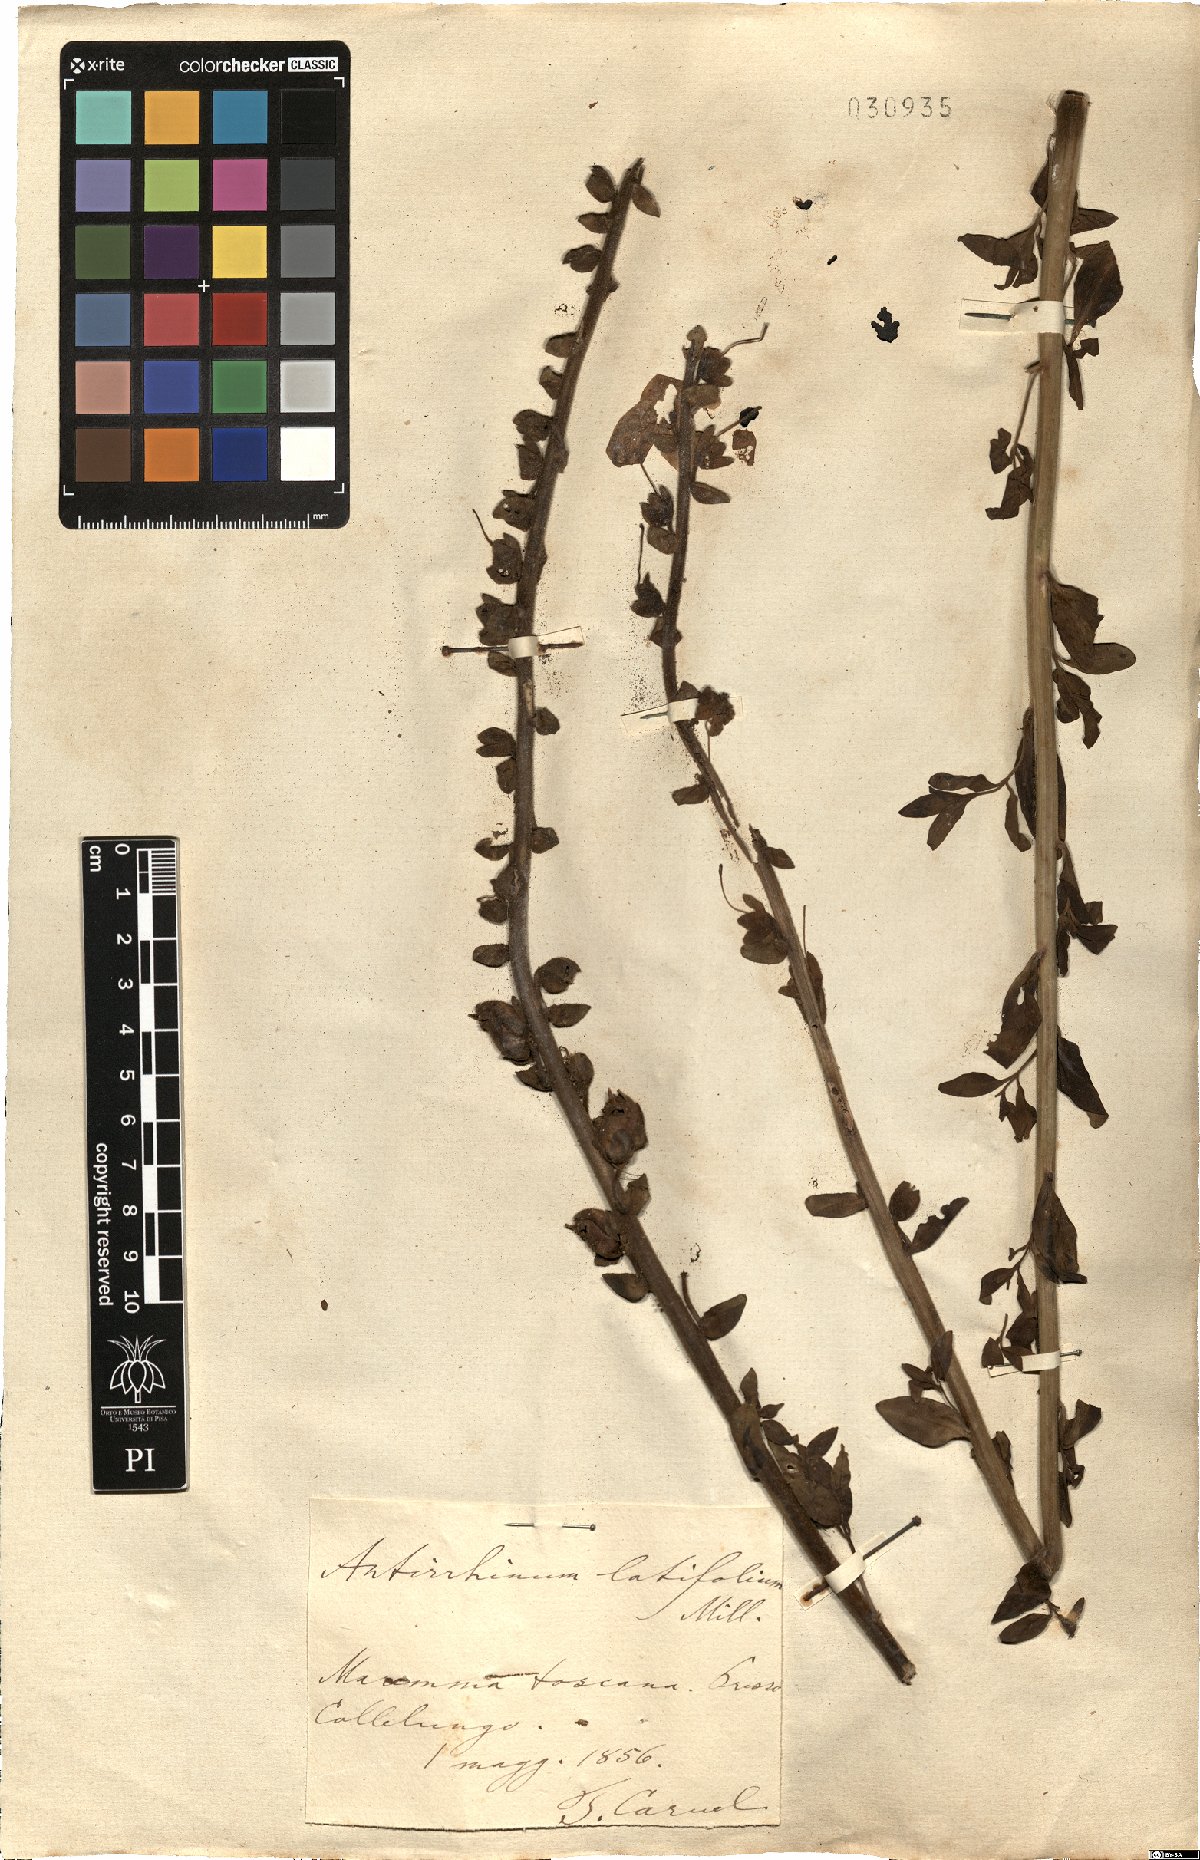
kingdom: Plantae
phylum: Tracheophyta
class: Magnoliopsida
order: Lamiales
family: Plantaginaceae
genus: Antirrhinum
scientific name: Antirrhinum latifolium
